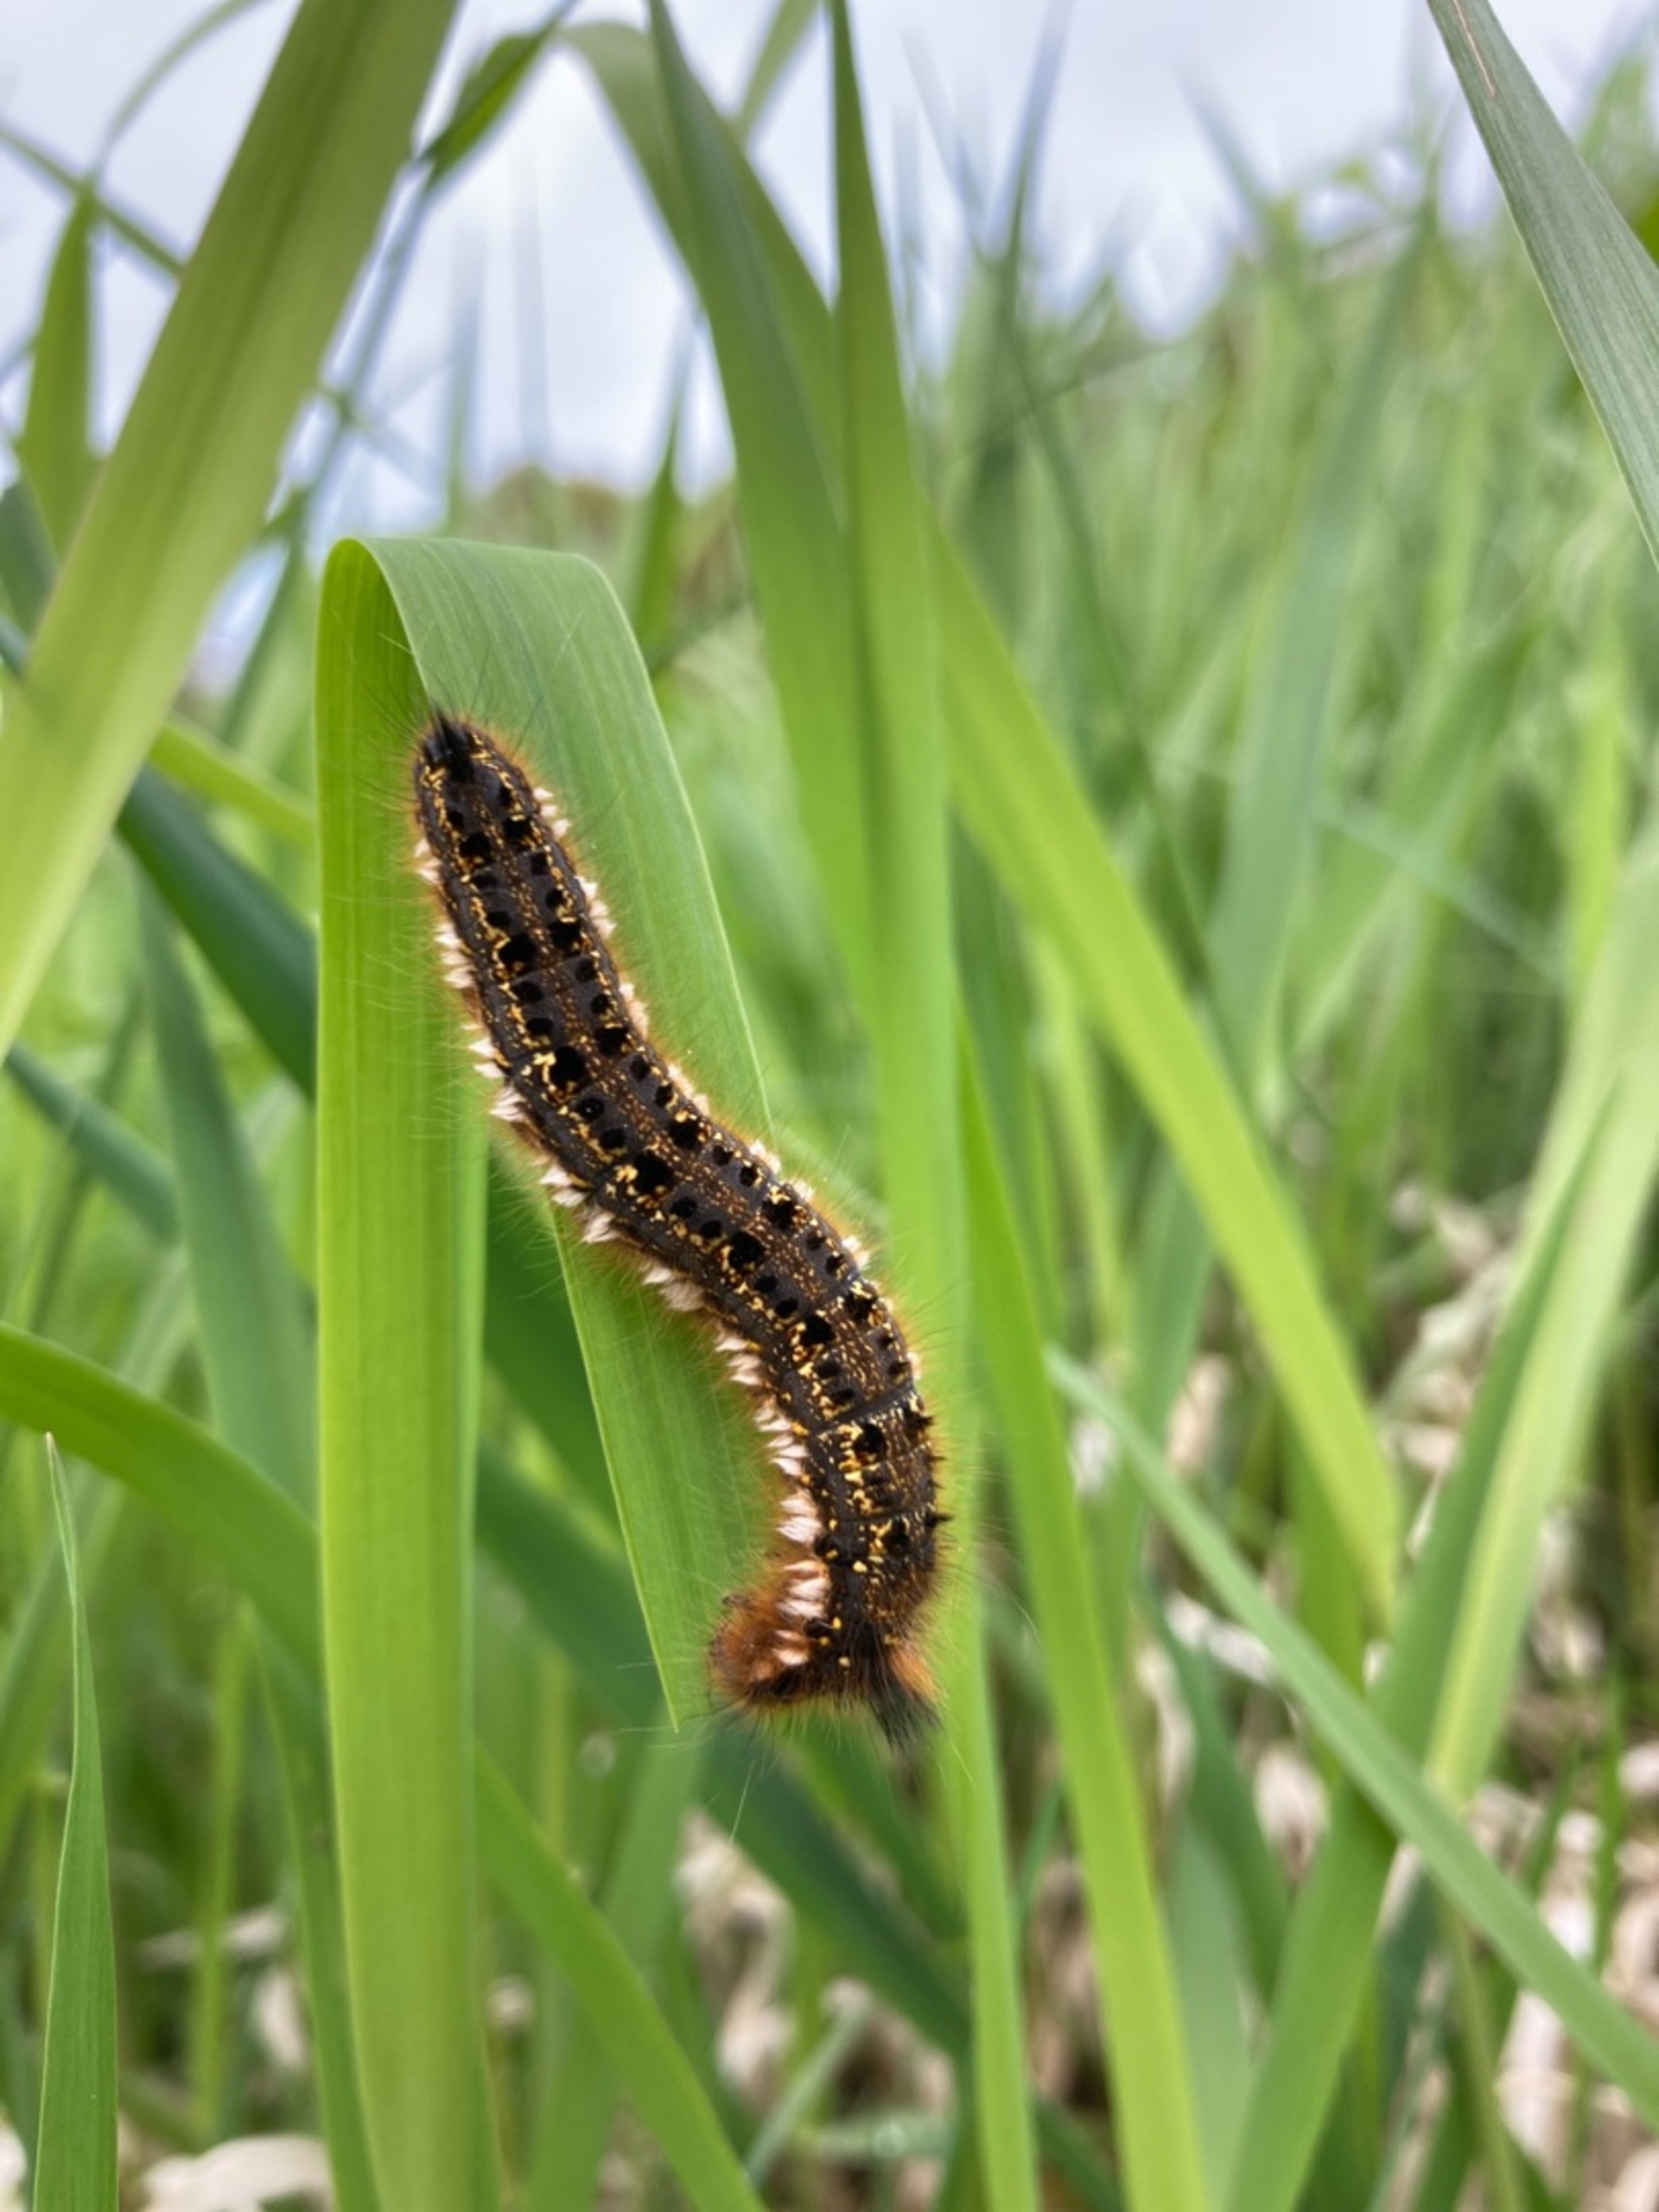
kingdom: Animalia
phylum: Arthropoda
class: Insecta
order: Lepidoptera
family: Lasiocampidae
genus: Euthrix
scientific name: Euthrix potatoria
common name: Græsspinder
